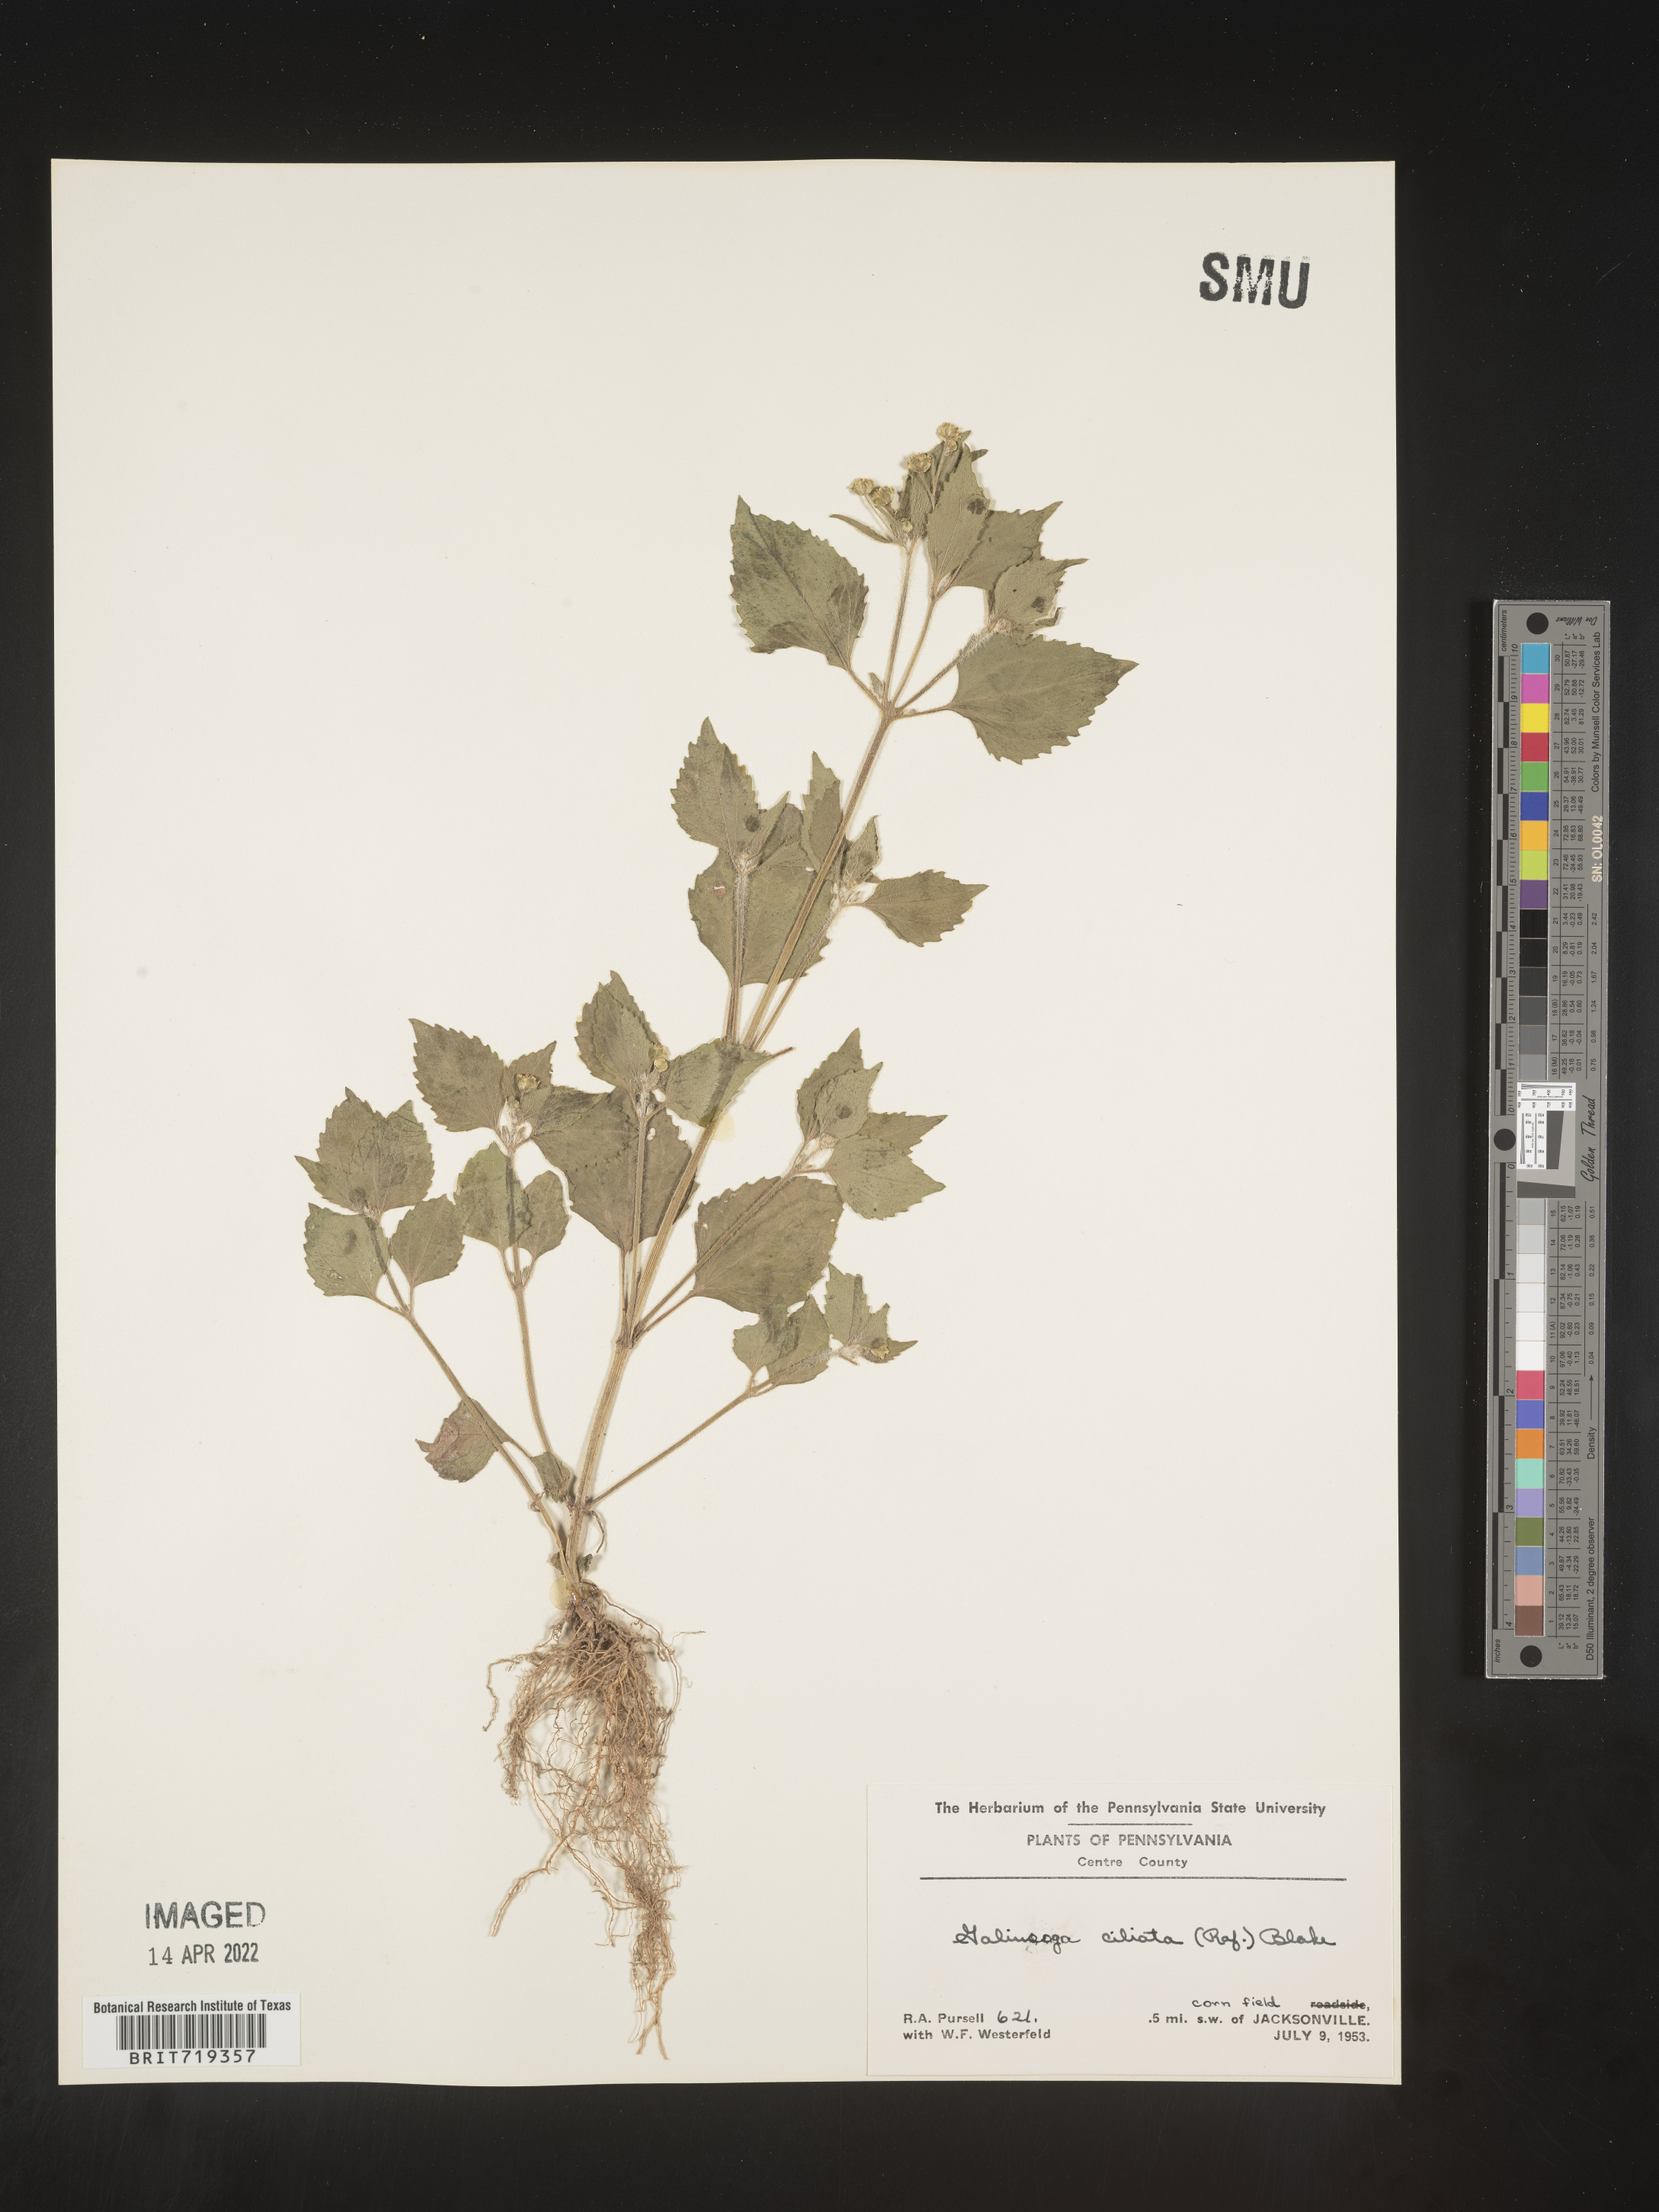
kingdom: Plantae
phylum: Tracheophyta
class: Magnoliopsida
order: Asterales
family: Asteraceae
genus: Galinsoga
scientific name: Galinsoga quadriradiata
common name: Shaggy soldier
